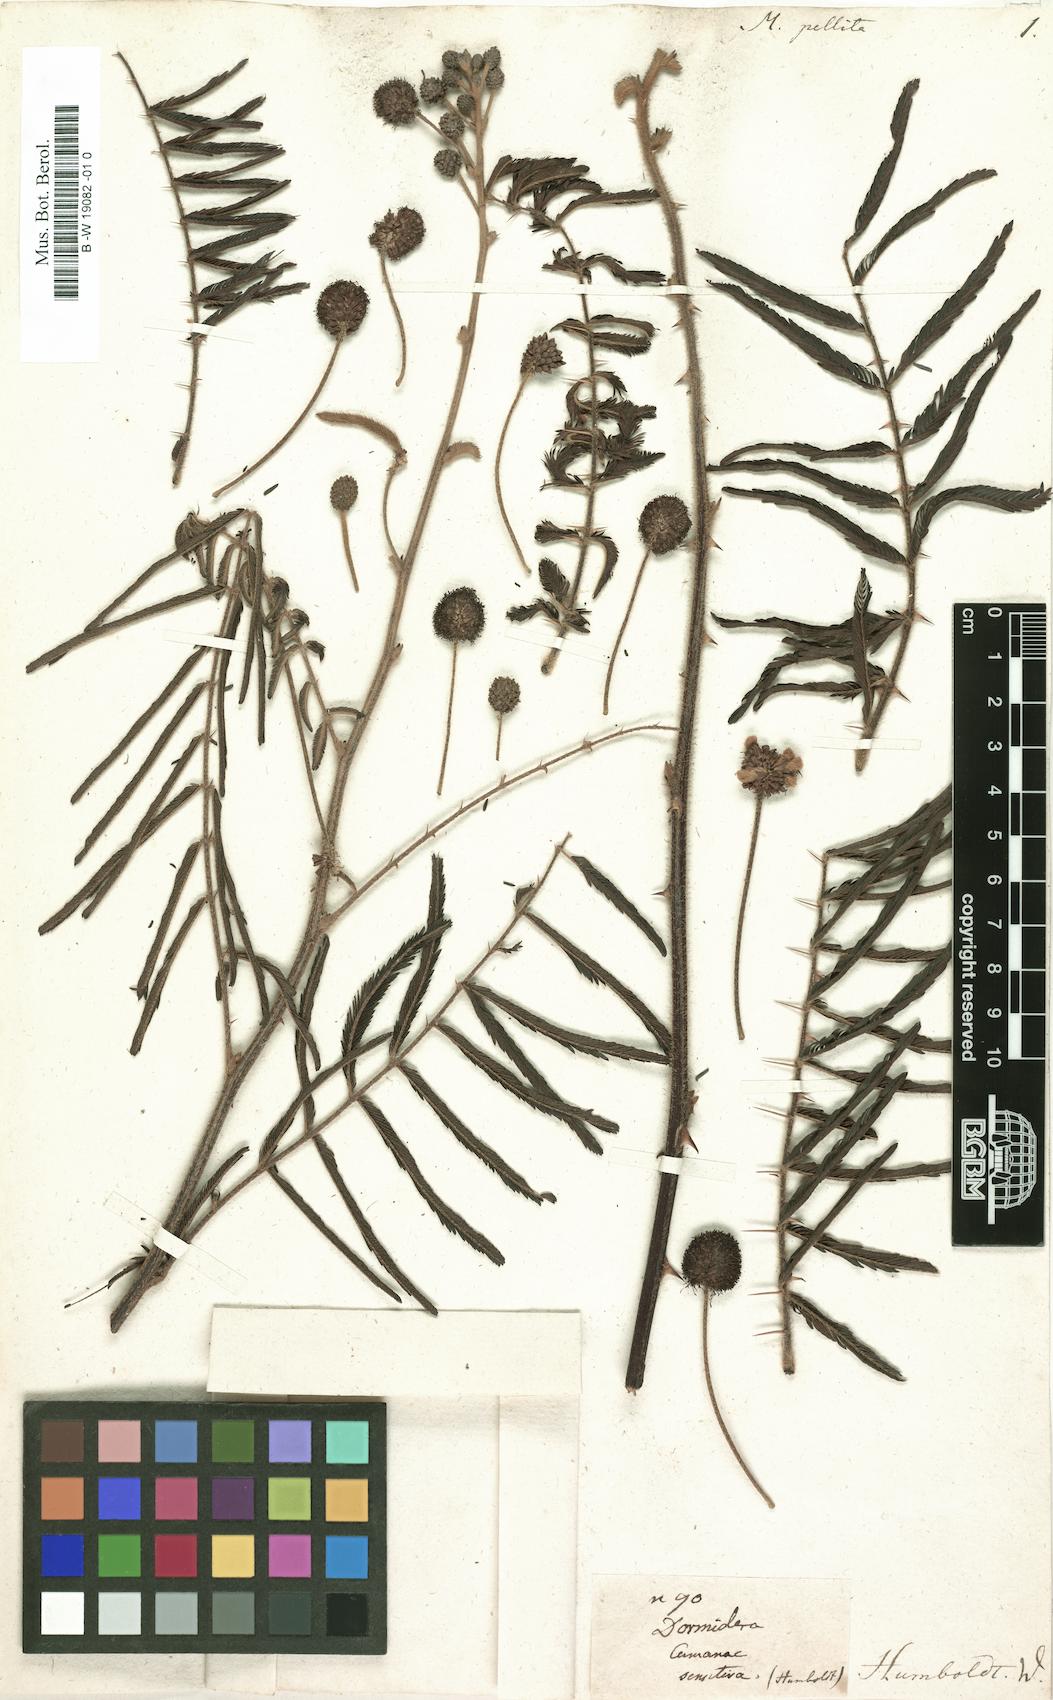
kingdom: Plantae
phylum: Tracheophyta
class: Magnoliopsida
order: Fabales
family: Fabaceae
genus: Mimosa
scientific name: Mimosa pigra
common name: Black mimosa
